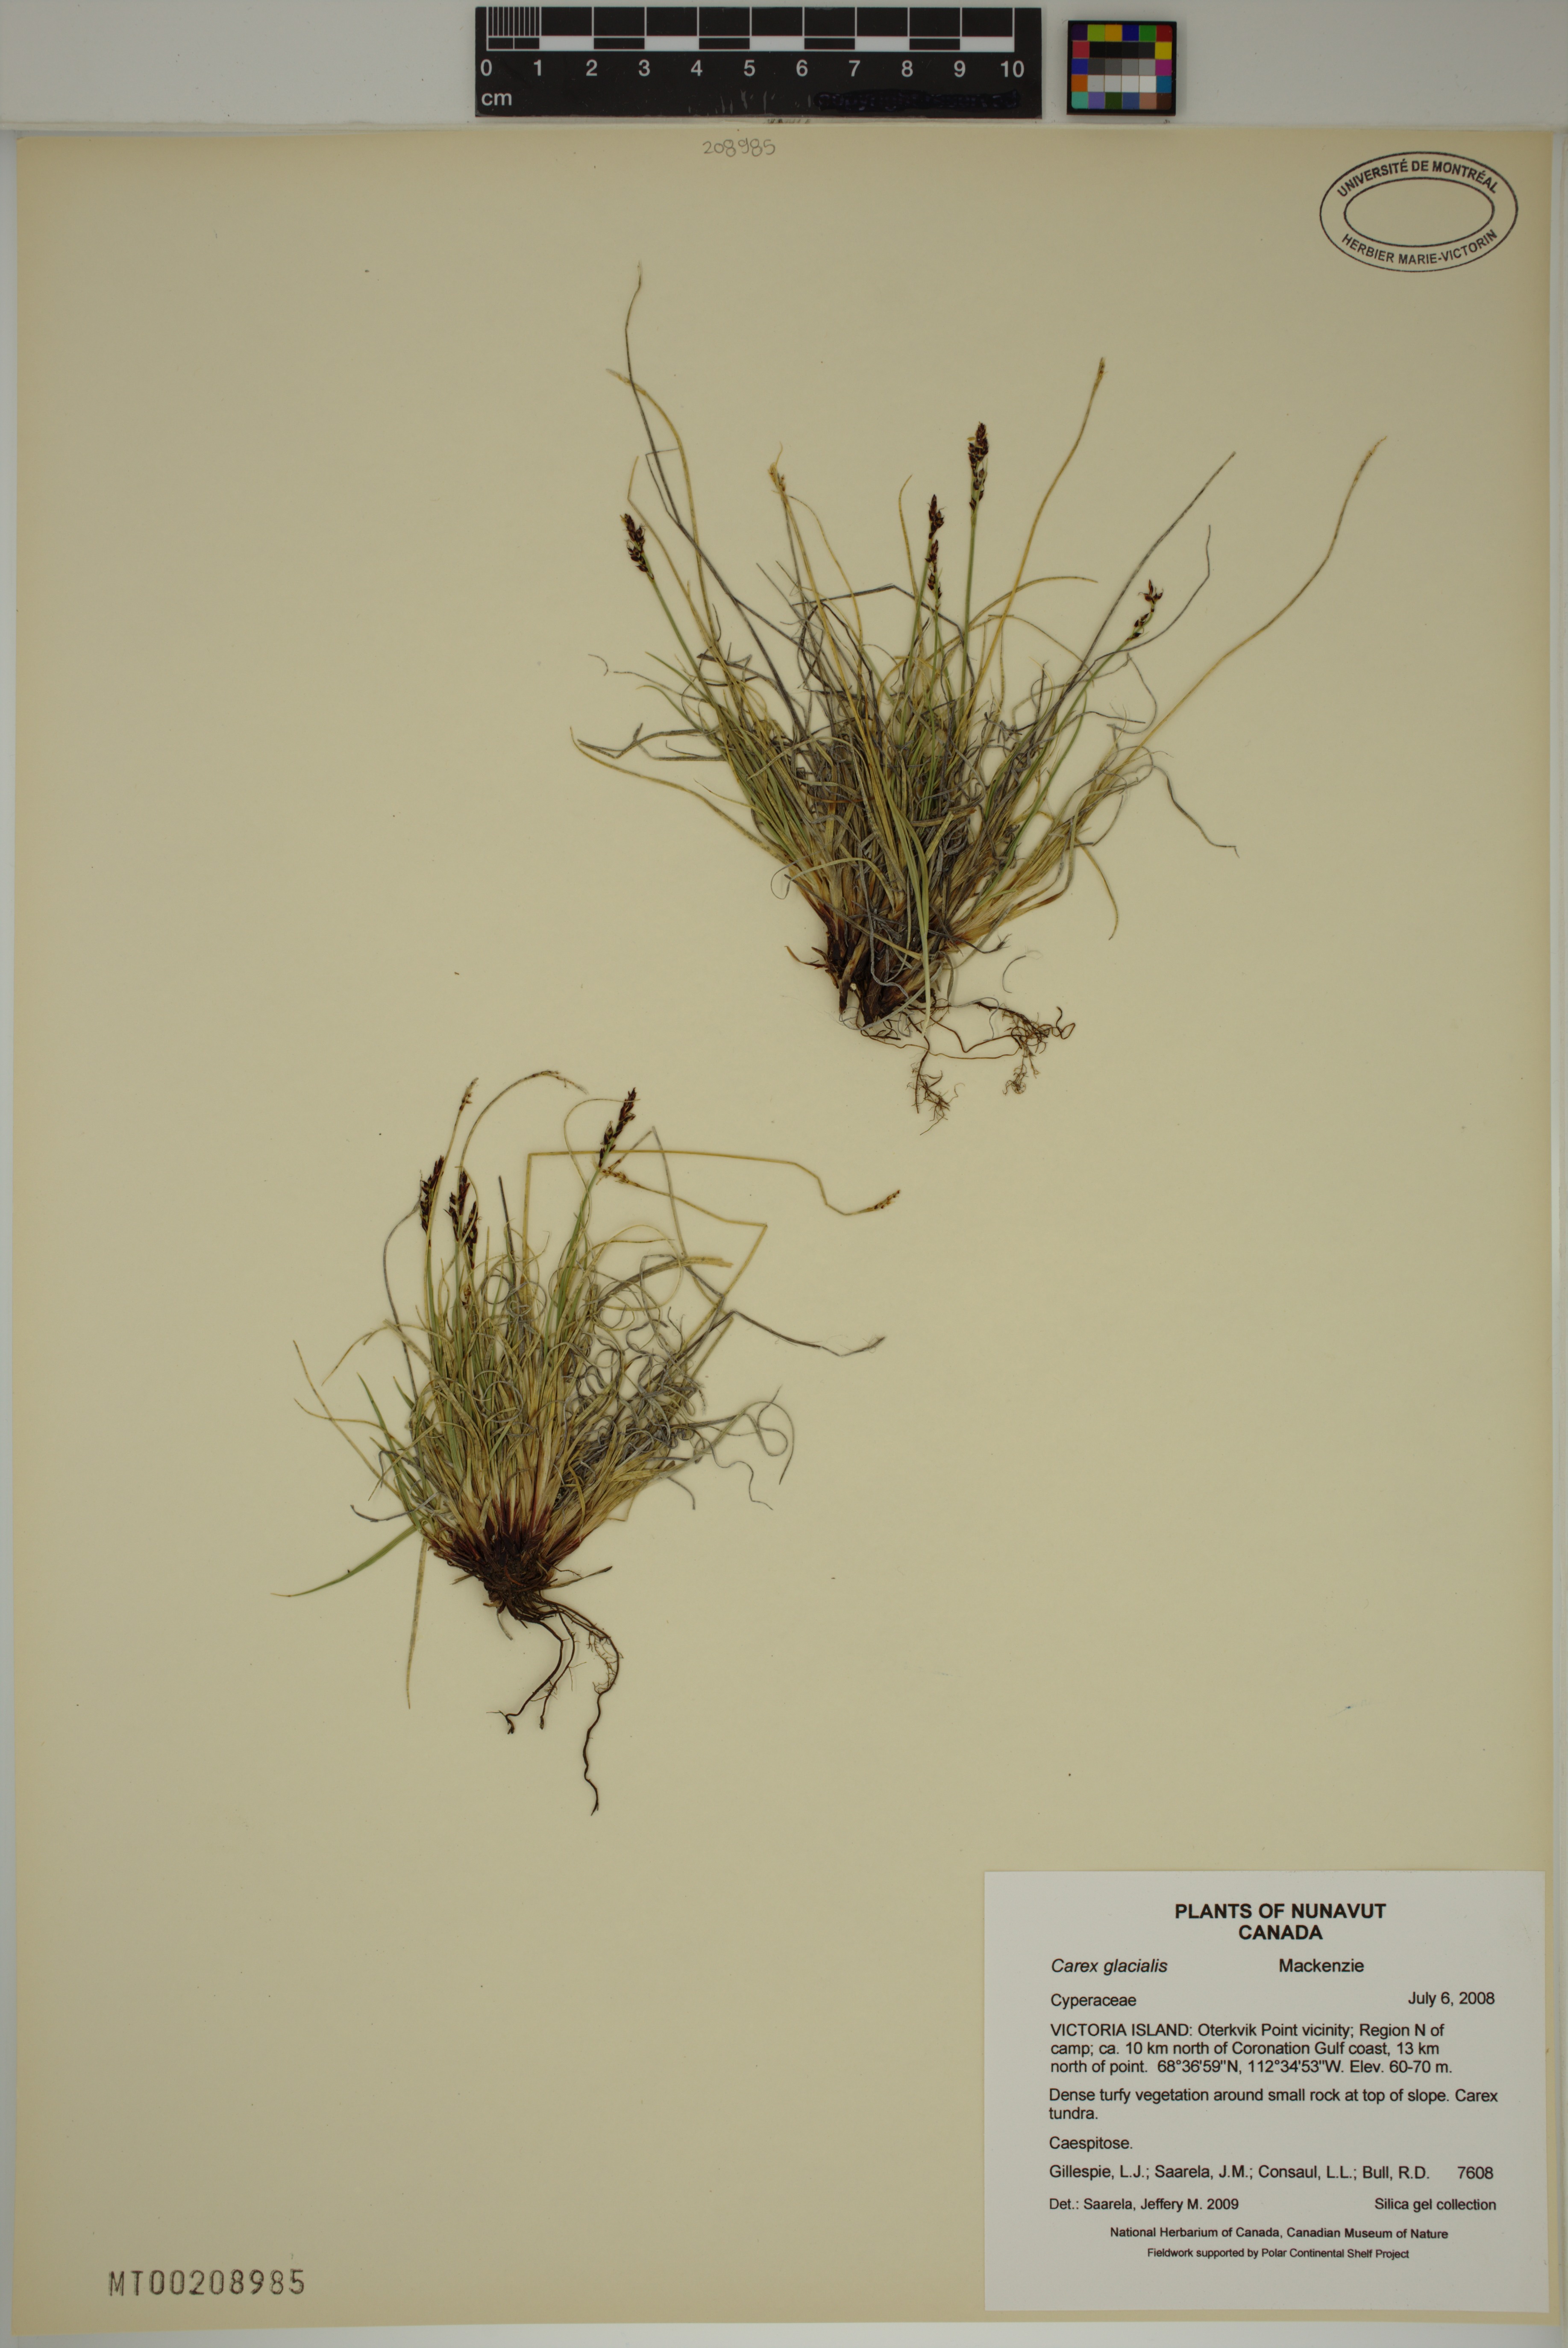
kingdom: Plantae
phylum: Tracheophyta
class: Liliopsida
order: Poales
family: Cyperaceae
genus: Carex
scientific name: Carex glacialis
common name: Newfoundland sedge
